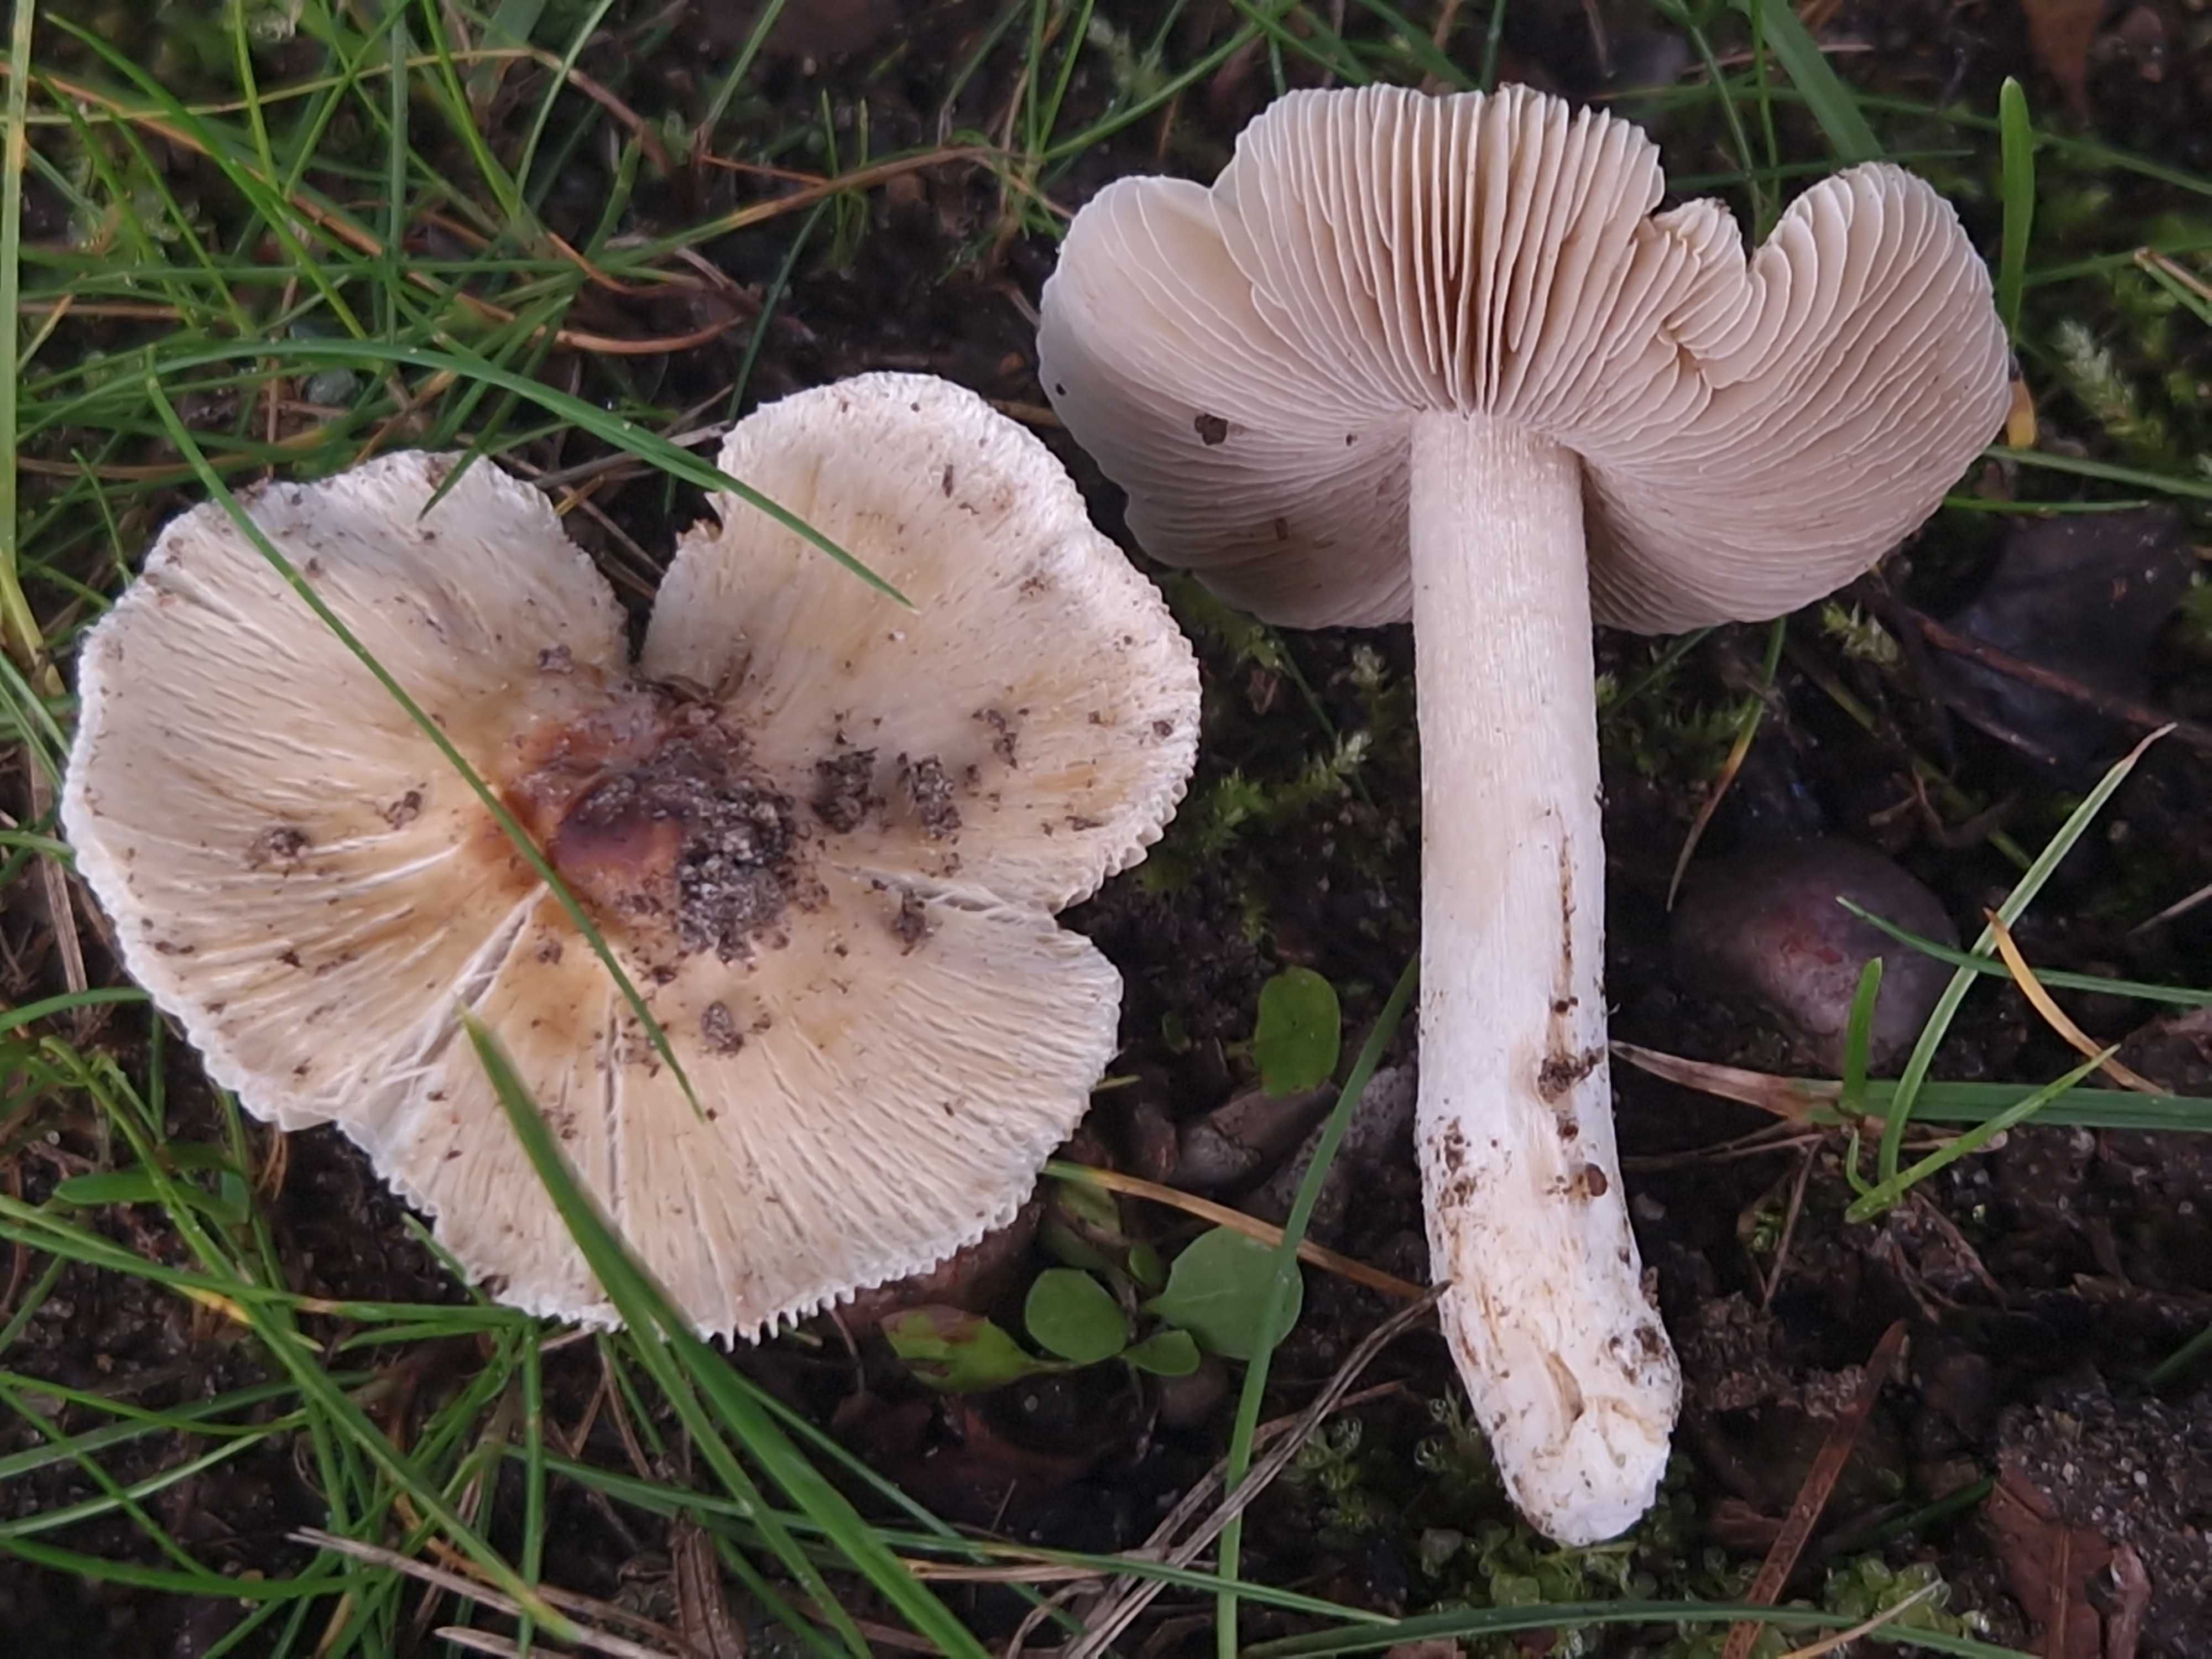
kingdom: Fungi
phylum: Basidiomycota
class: Agaricomycetes
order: Agaricales
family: Inocybaceae
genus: Pseudosperma
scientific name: Pseudosperma
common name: trævlhat
